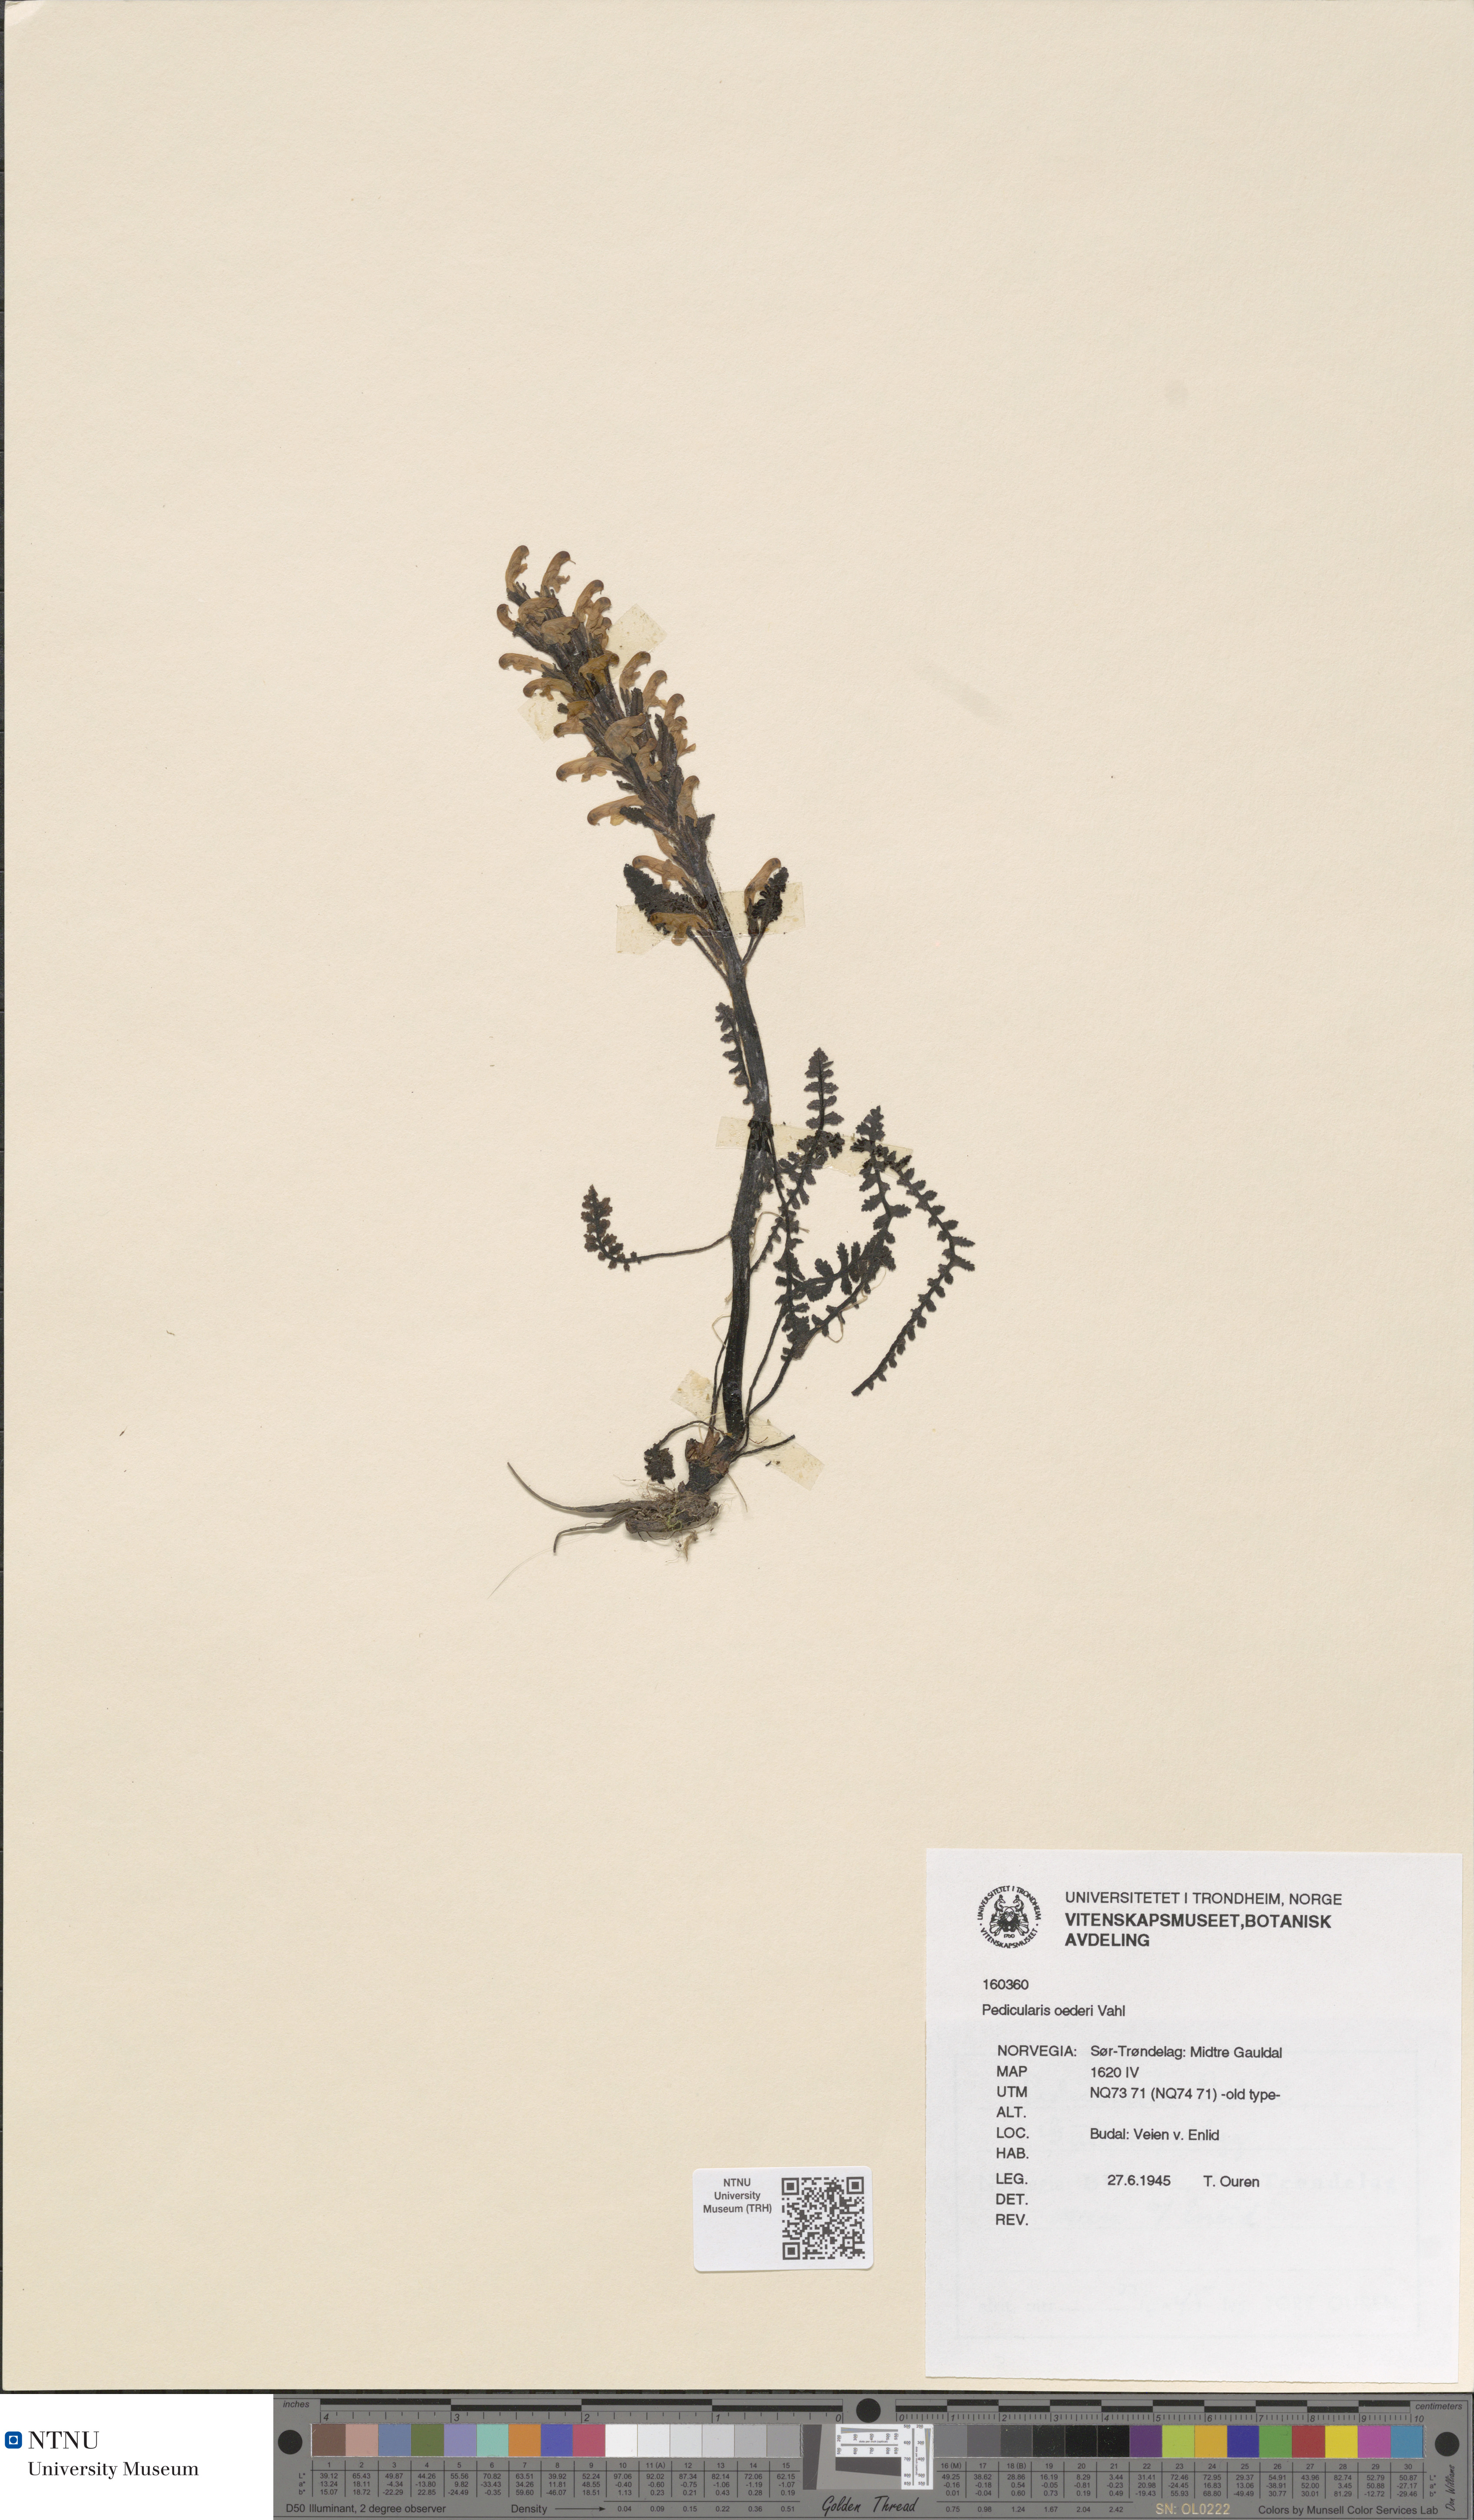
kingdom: Plantae
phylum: Tracheophyta
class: Magnoliopsida
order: Lamiales
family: Orobanchaceae
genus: Pedicularis
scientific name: Pedicularis oederi
